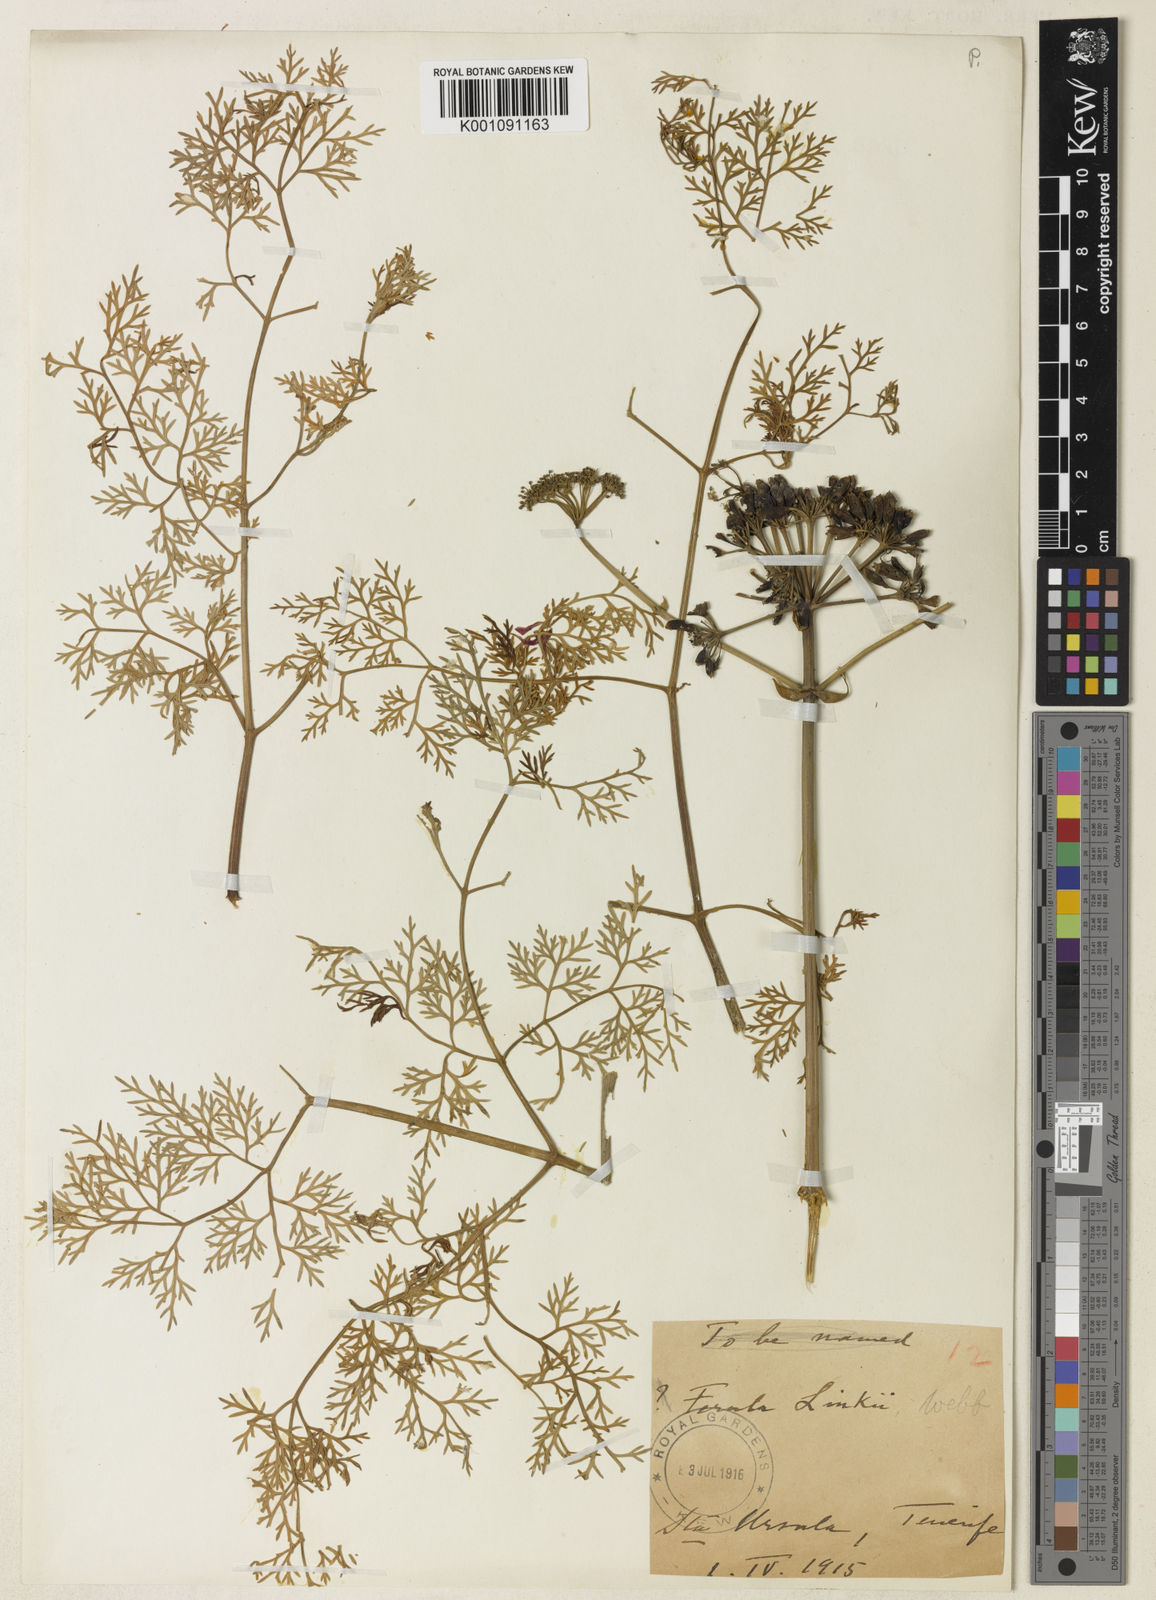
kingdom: Plantae
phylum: Tracheophyta
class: Magnoliopsida
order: Apiales
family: Apiaceae
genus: Ferula
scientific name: Ferula communis
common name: Giant fennel
